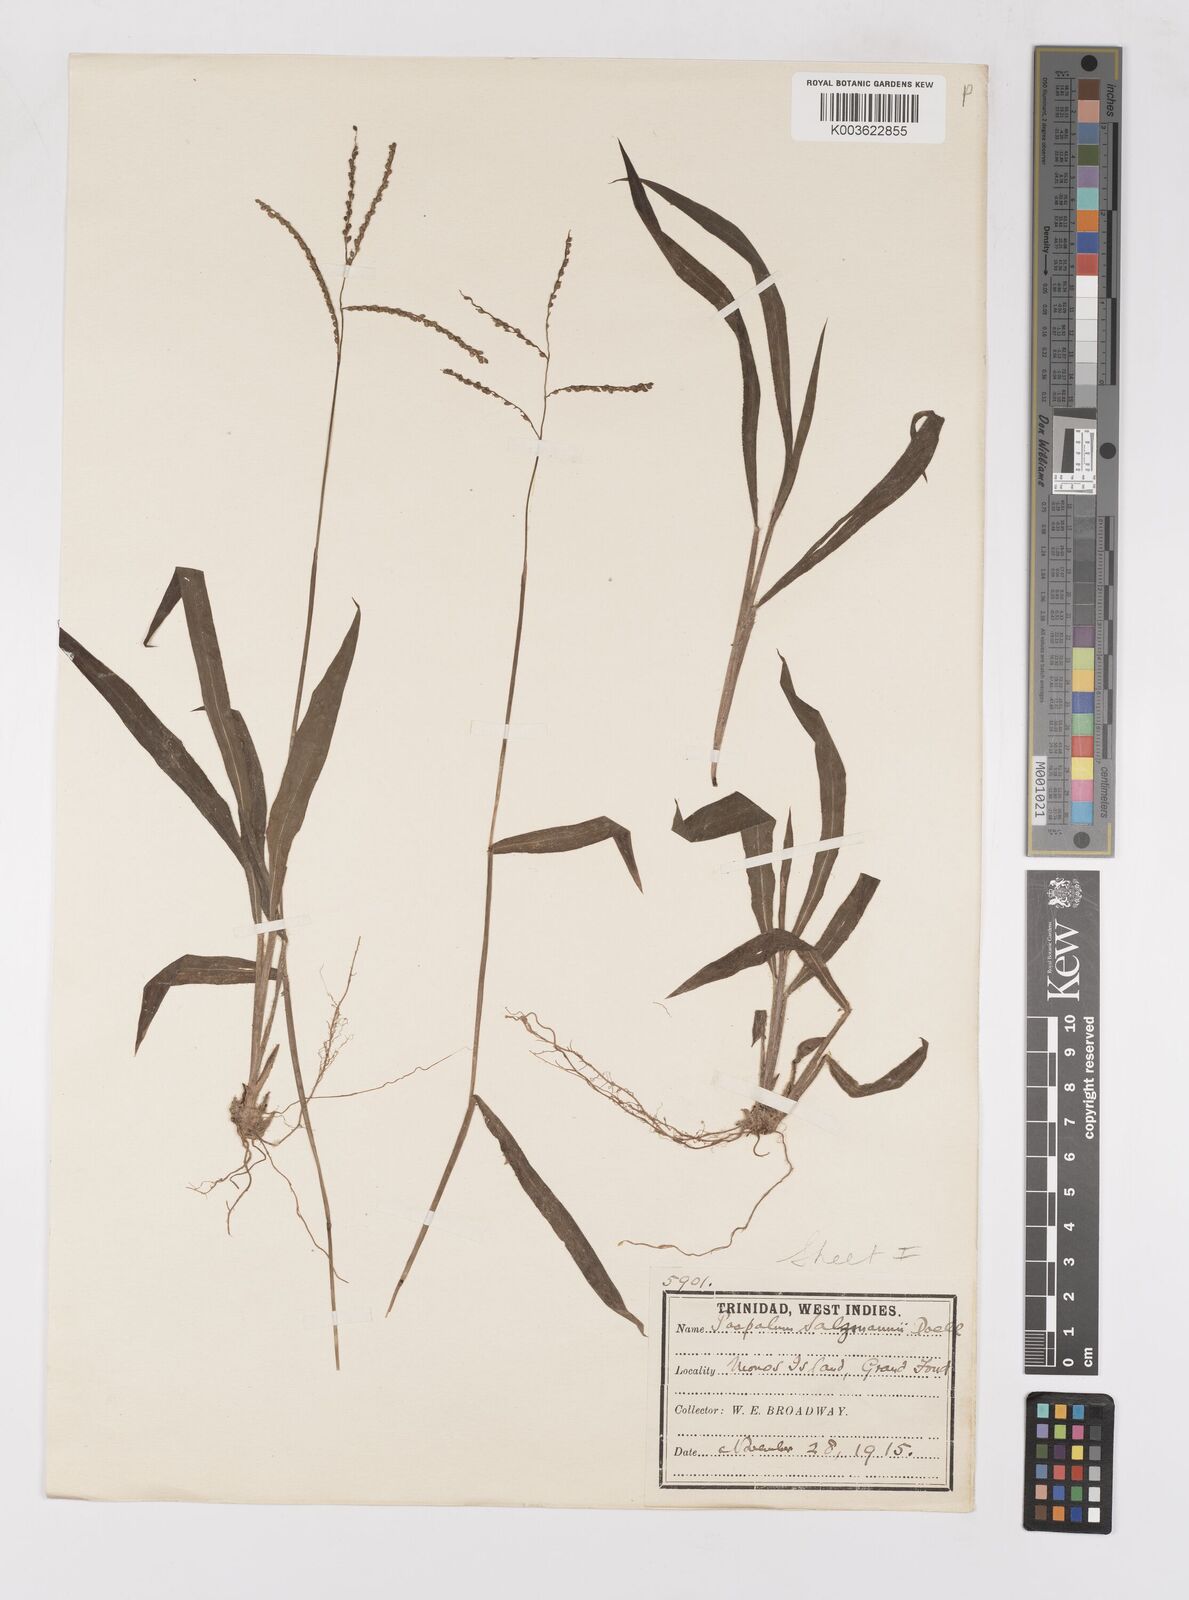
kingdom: Plantae
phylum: Tracheophyta
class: Liliopsida
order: Poales
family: Poaceae
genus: Paspalum
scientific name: Paspalum oligostachyum
